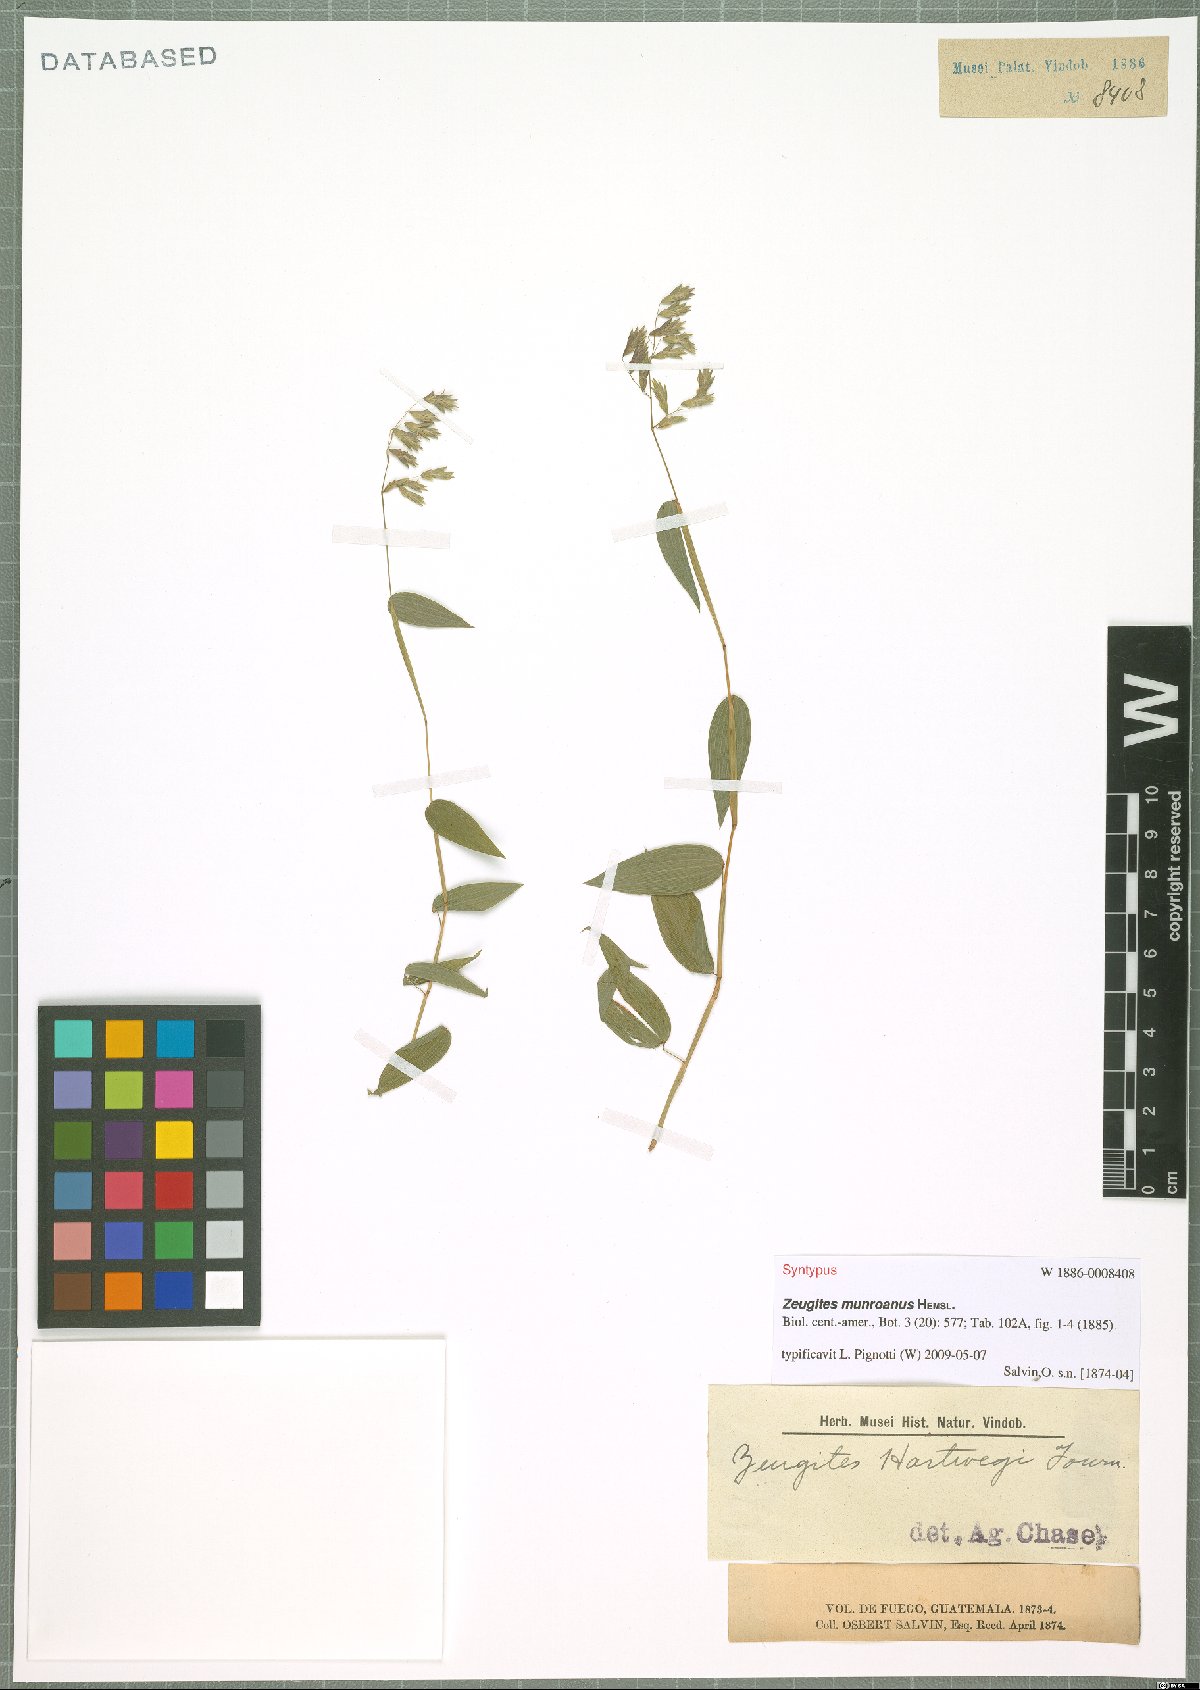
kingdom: Plantae
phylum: Tracheophyta
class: Liliopsida
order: Poales
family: Poaceae
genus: Zeugites
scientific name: Zeugites munroanus
